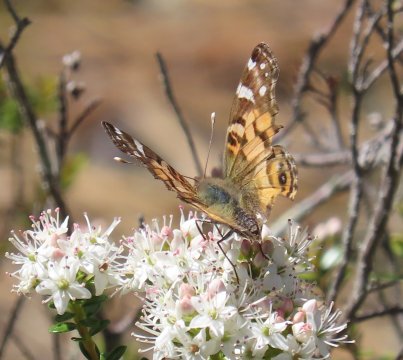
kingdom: Animalia
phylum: Arthropoda
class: Insecta
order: Lepidoptera
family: Nymphalidae
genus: Vanessa
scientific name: Vanessa virginiensis
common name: American Lady
